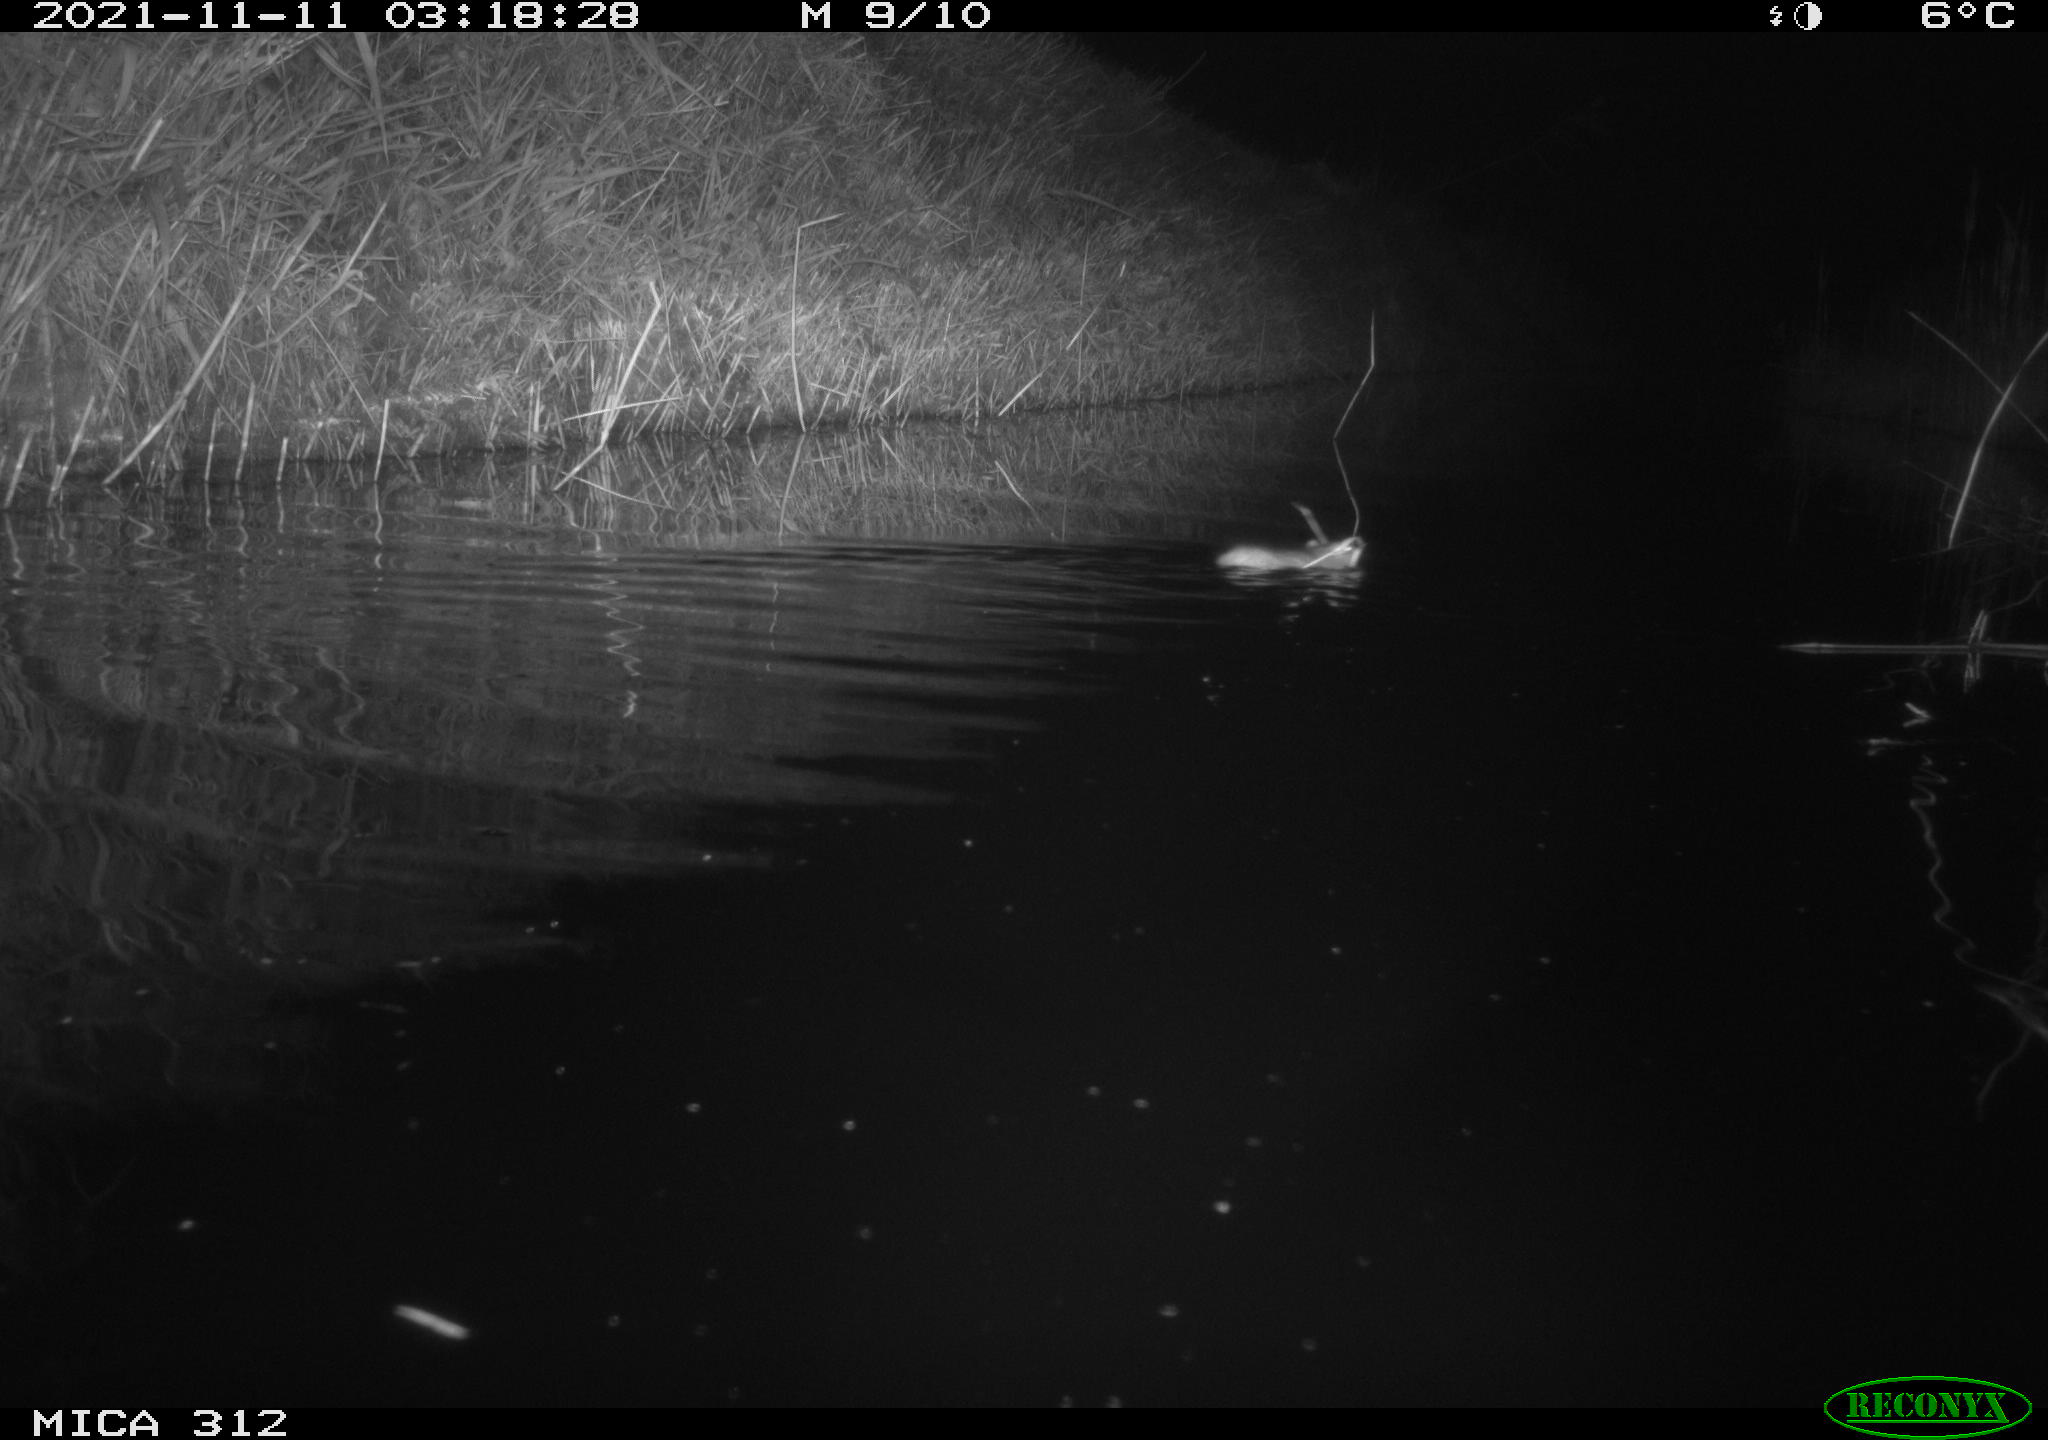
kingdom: Animalia
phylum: Chordata
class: Aves
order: Anseriformes
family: Anatidae
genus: Anas
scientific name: Anas
